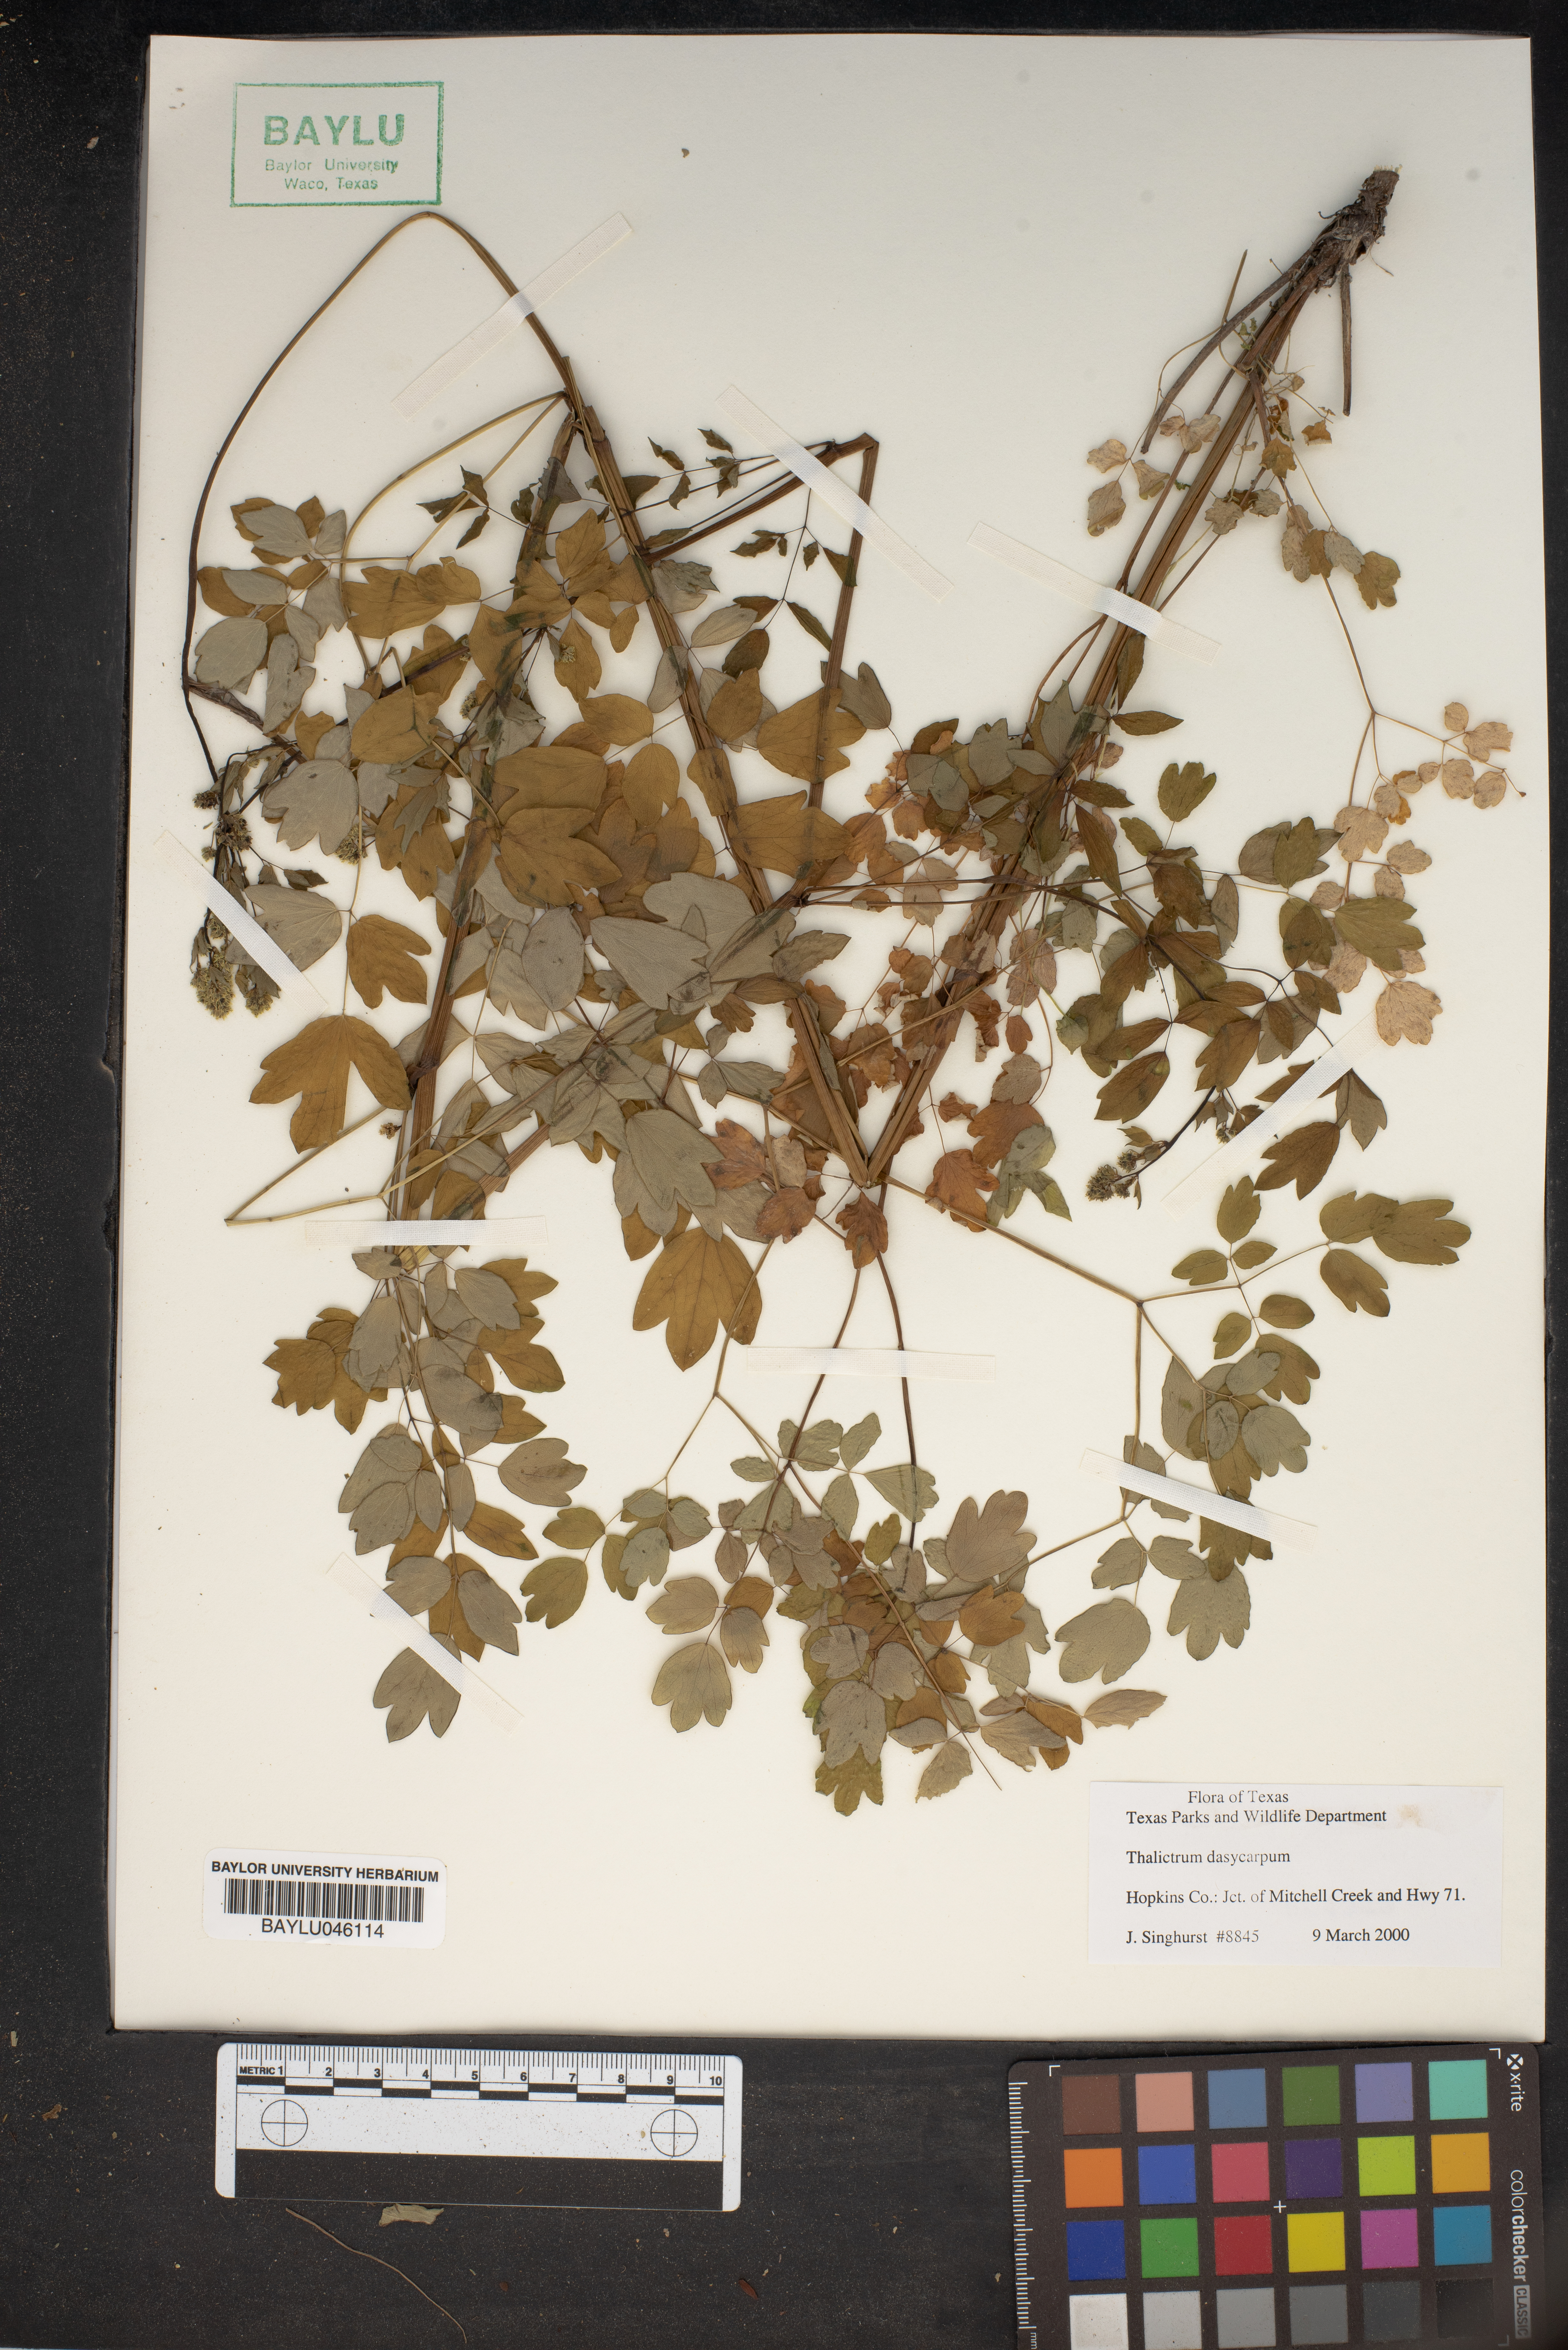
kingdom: Plantae
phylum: Tracheophyta
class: Magnoliopsida
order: Ranunculales
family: Ranunculaceae
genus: Thalictrum
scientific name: Thalictrum dasycarpum
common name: Purple meadow-rue
